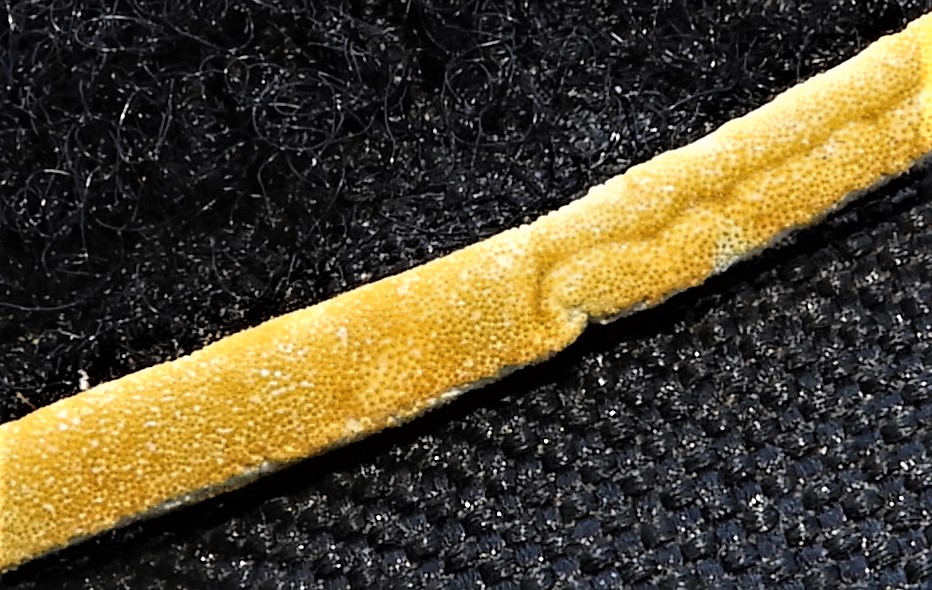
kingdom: Fungi
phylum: Ascomycota
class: Sordariomycetes
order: Hypocreales
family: Clavicipitaceae
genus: Epichloe
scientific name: Epichloe
